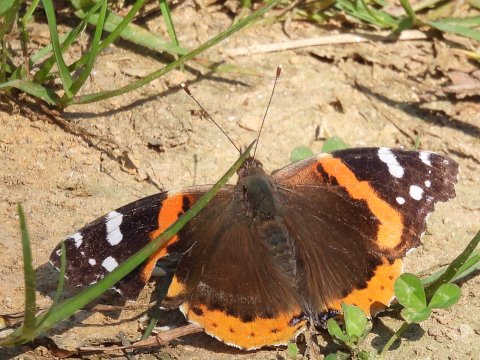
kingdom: Animalia
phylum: Arthropoda
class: Insecta
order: Lepidoptera
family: Nymphalidae
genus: Vanessa
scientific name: Vanessa atalanta
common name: Red Admiral
